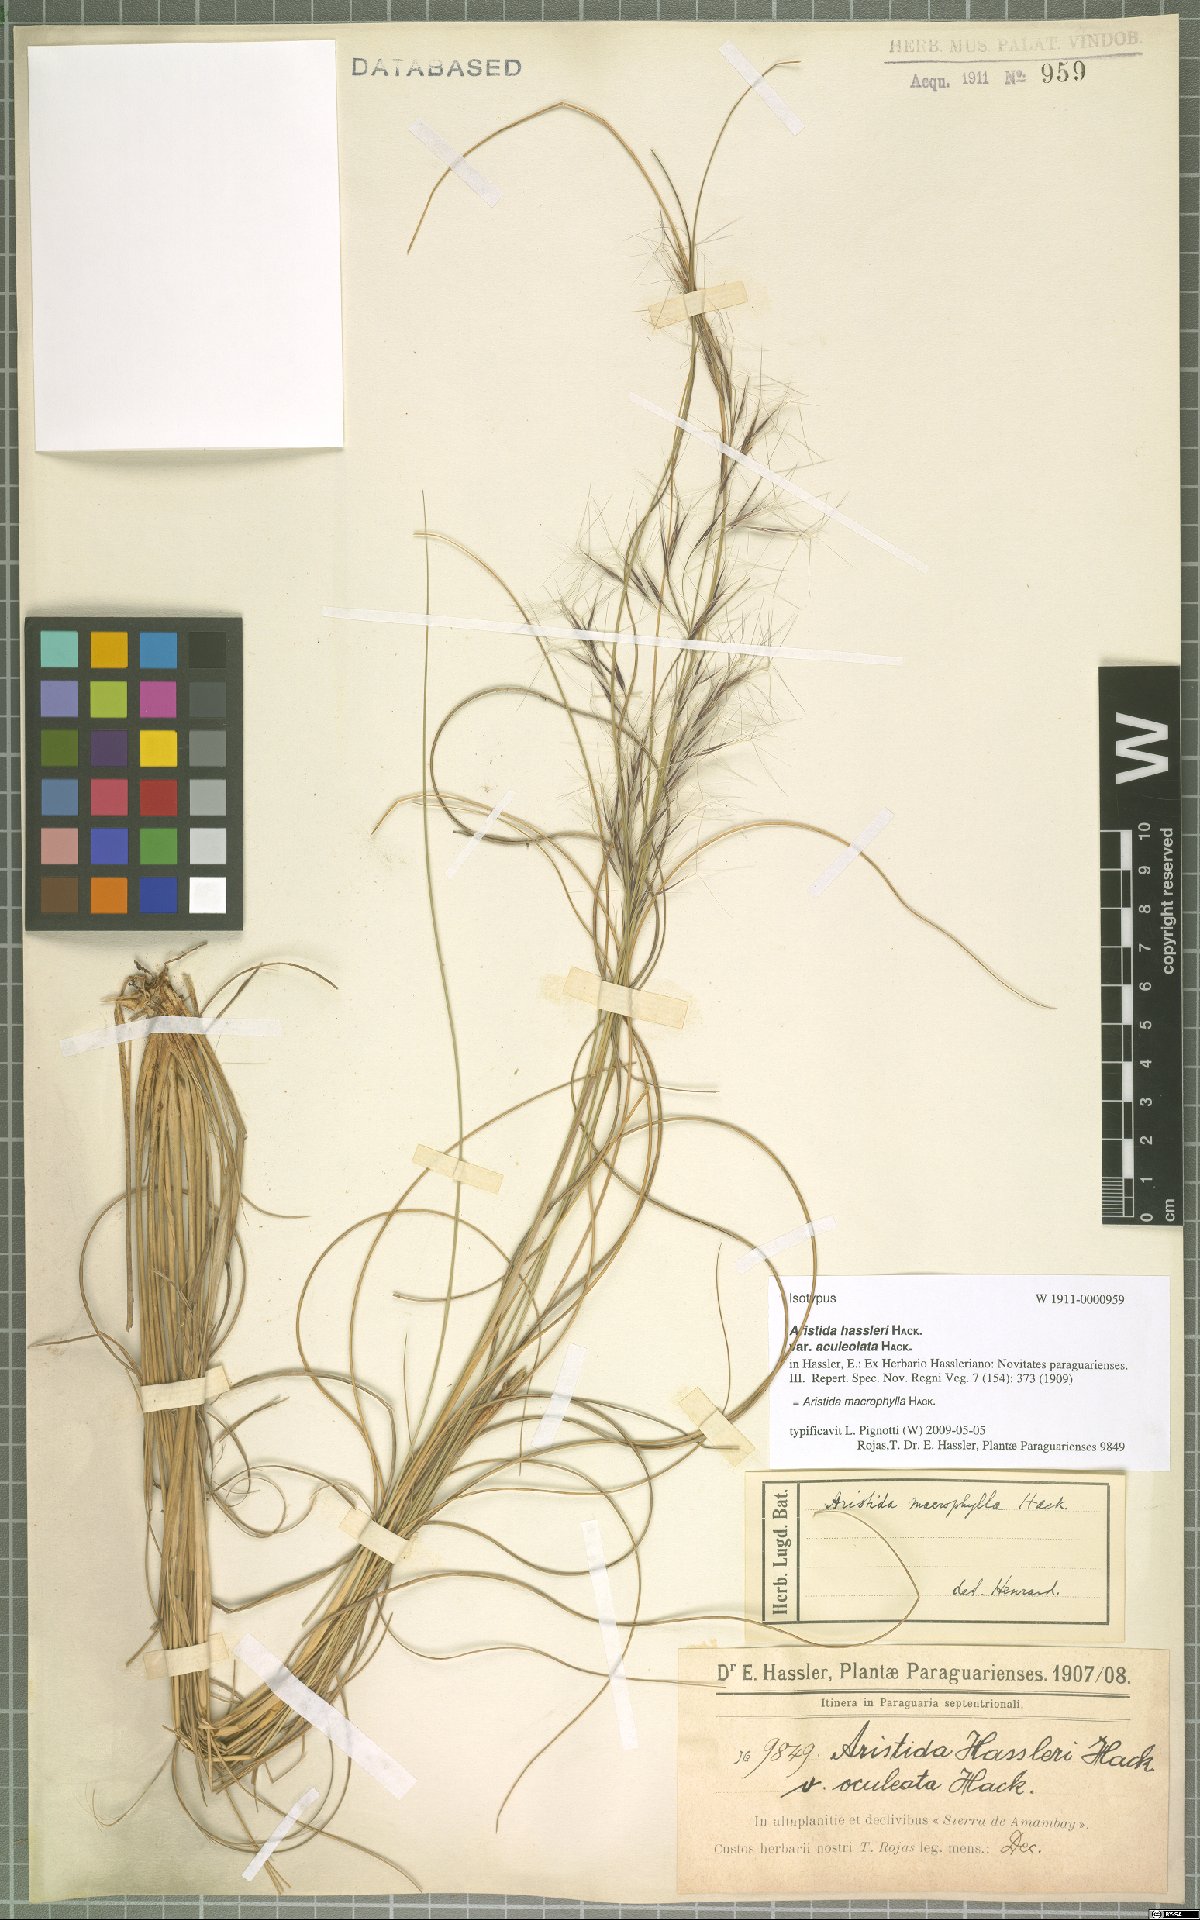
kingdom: Plantae
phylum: Tracheophyta
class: Liliopsida
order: Poales
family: Poaceae
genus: Aristida
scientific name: Aristida macrophylla
